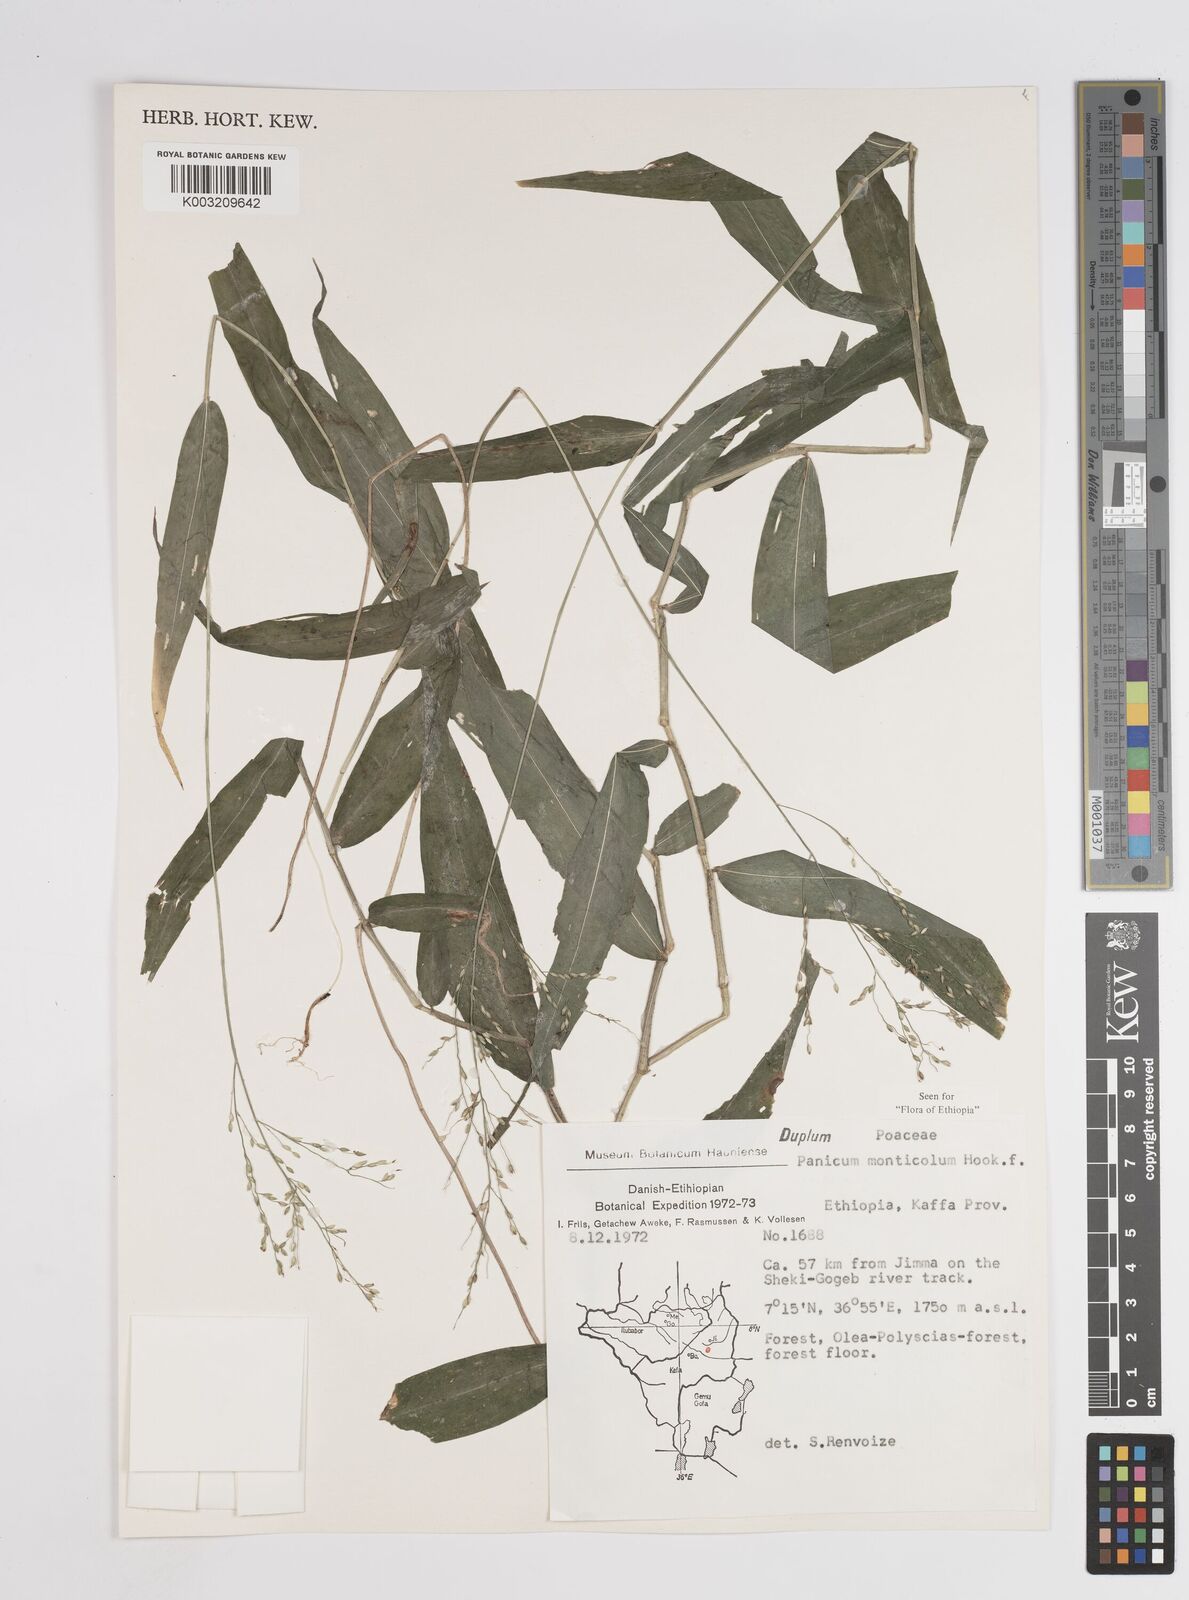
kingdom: Plantae
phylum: Tracheophyta
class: Liliopsida
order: Poales
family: Poaceae
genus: Panicum
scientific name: Panicum monticola
